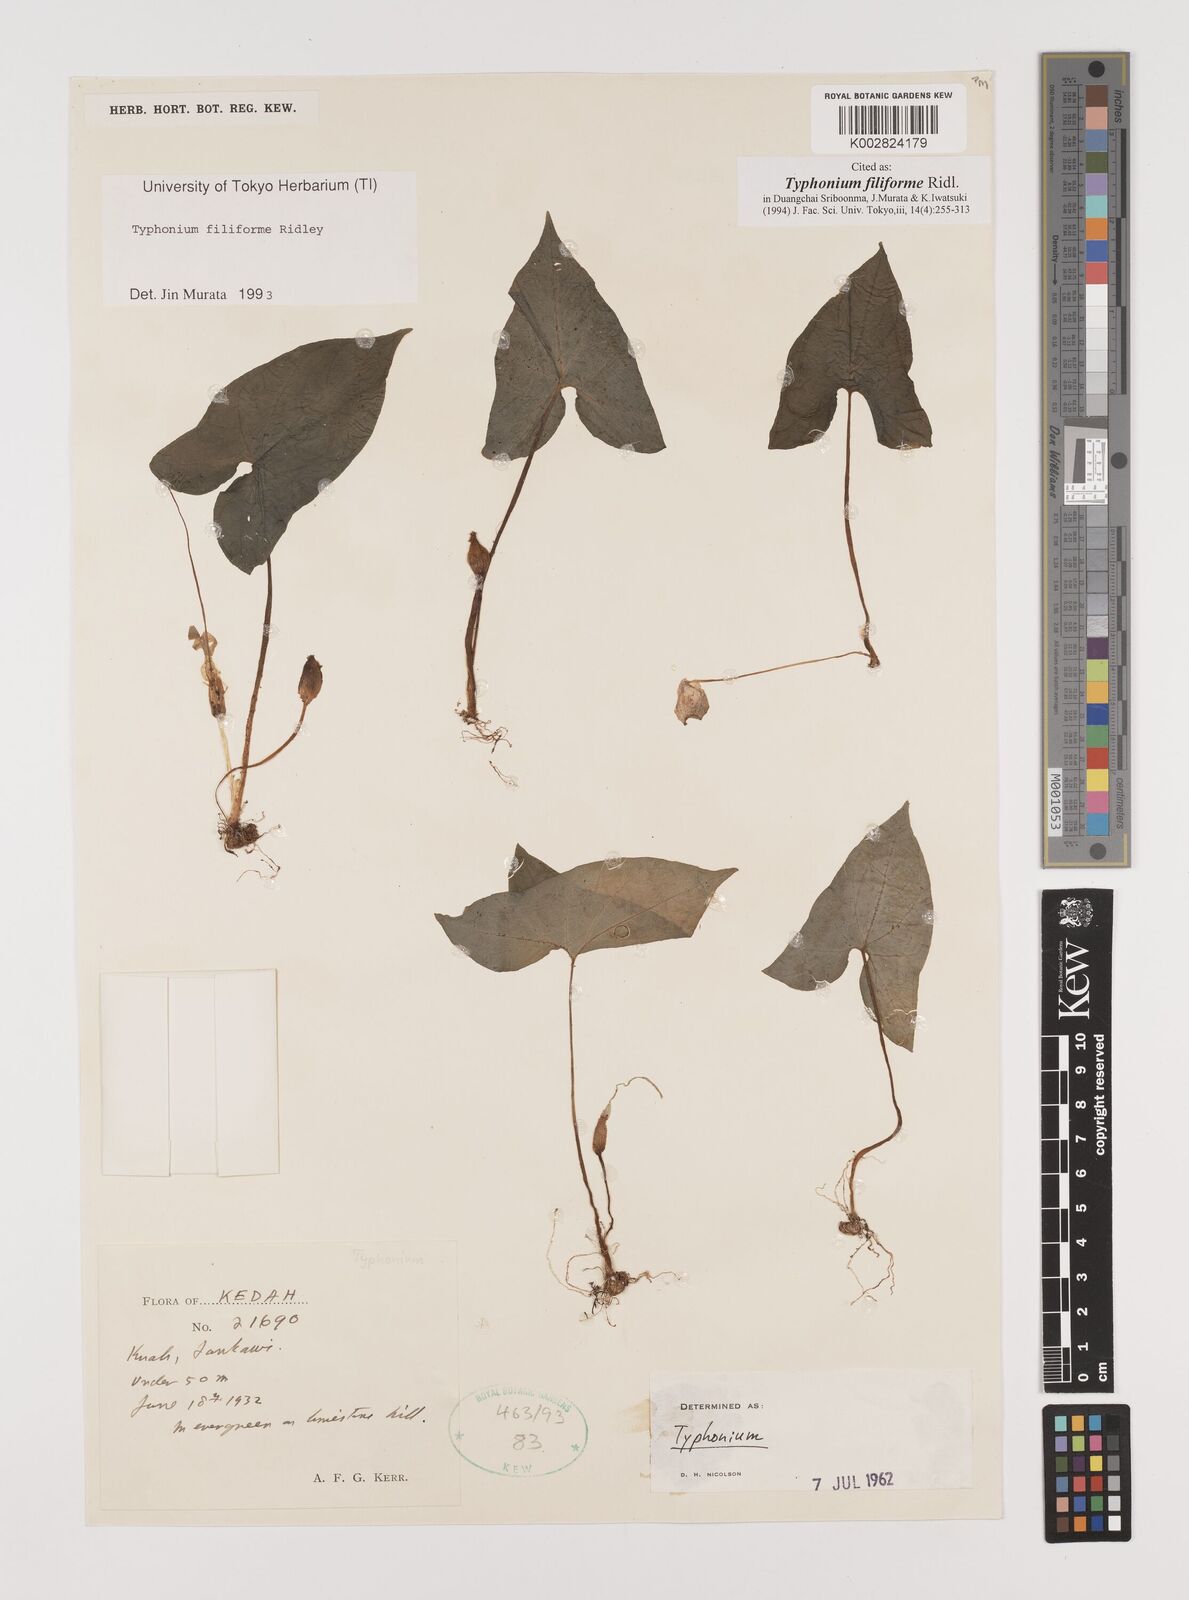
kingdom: Plantae
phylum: Tracheophyta
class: Liliopsida
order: Alismatales
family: Araceae
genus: Typhonium
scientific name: Typhonium filiforme
